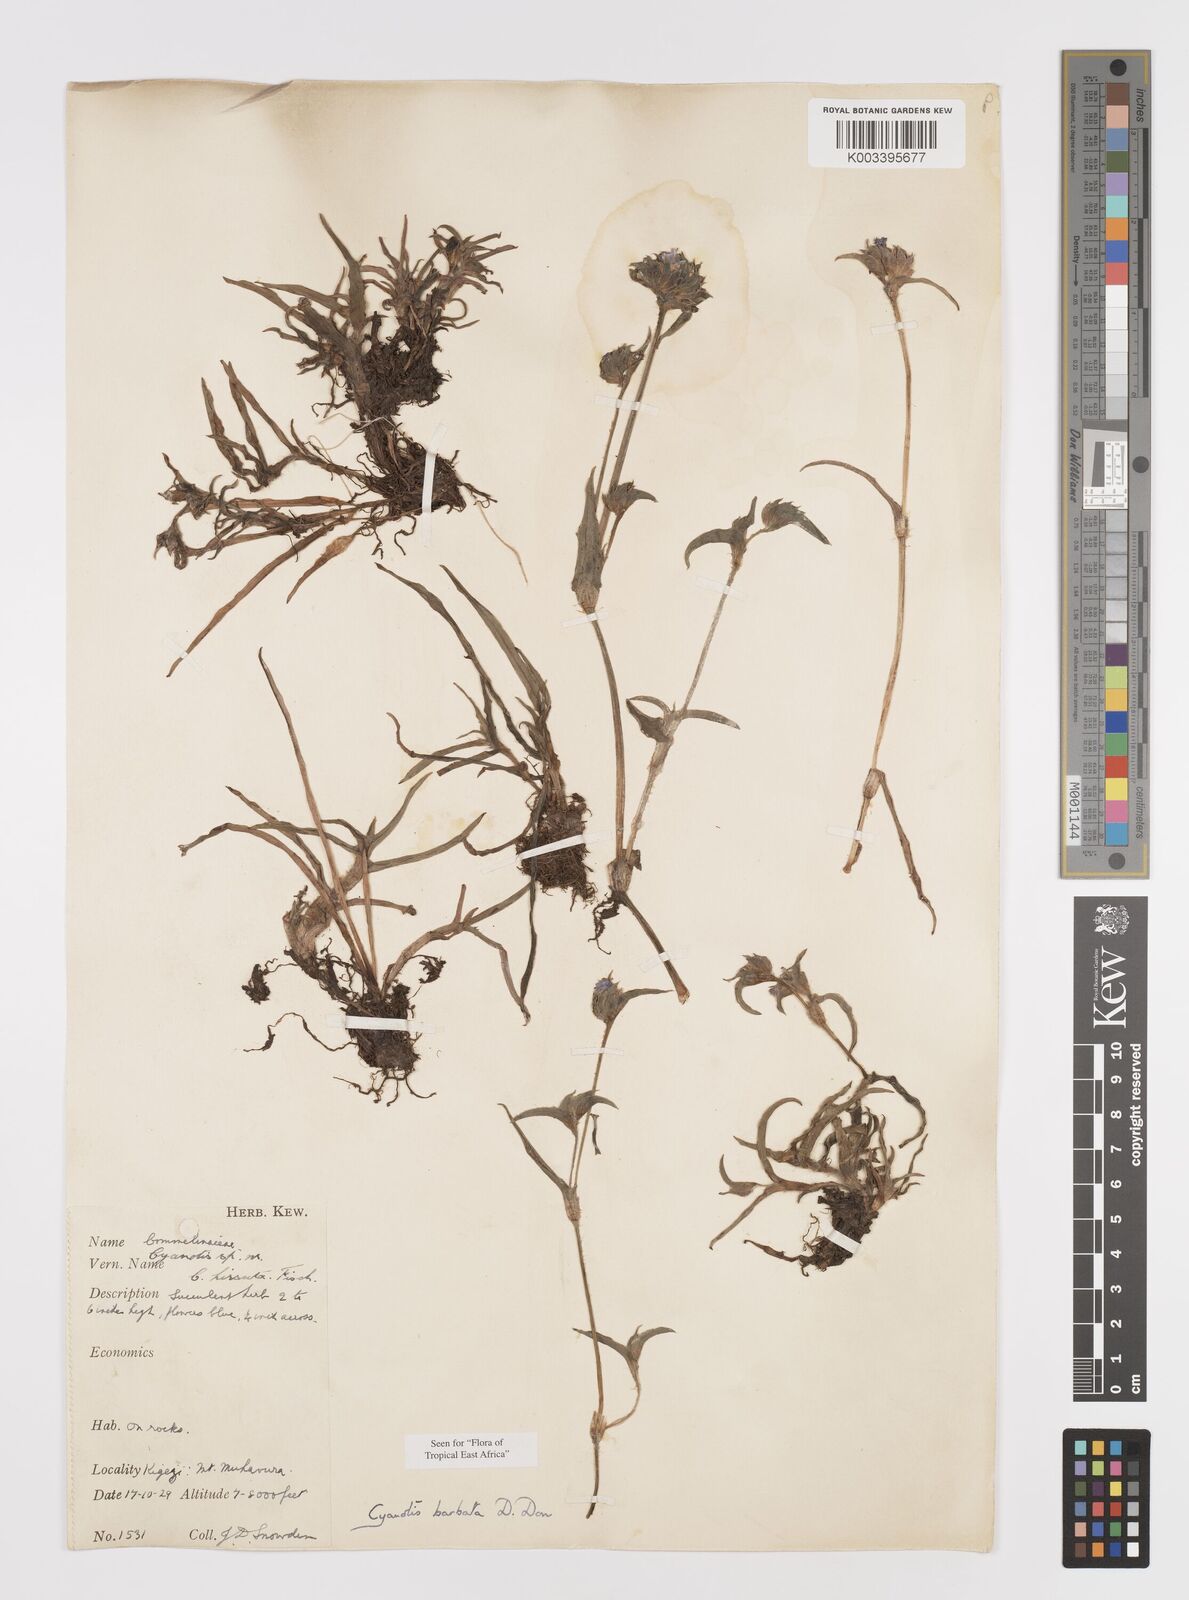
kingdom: Plantae
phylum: Tracheophyta
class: Liliopsida
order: Commelinales
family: Commelinaceae
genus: Cyanotis
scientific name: Cyanotis vaga
